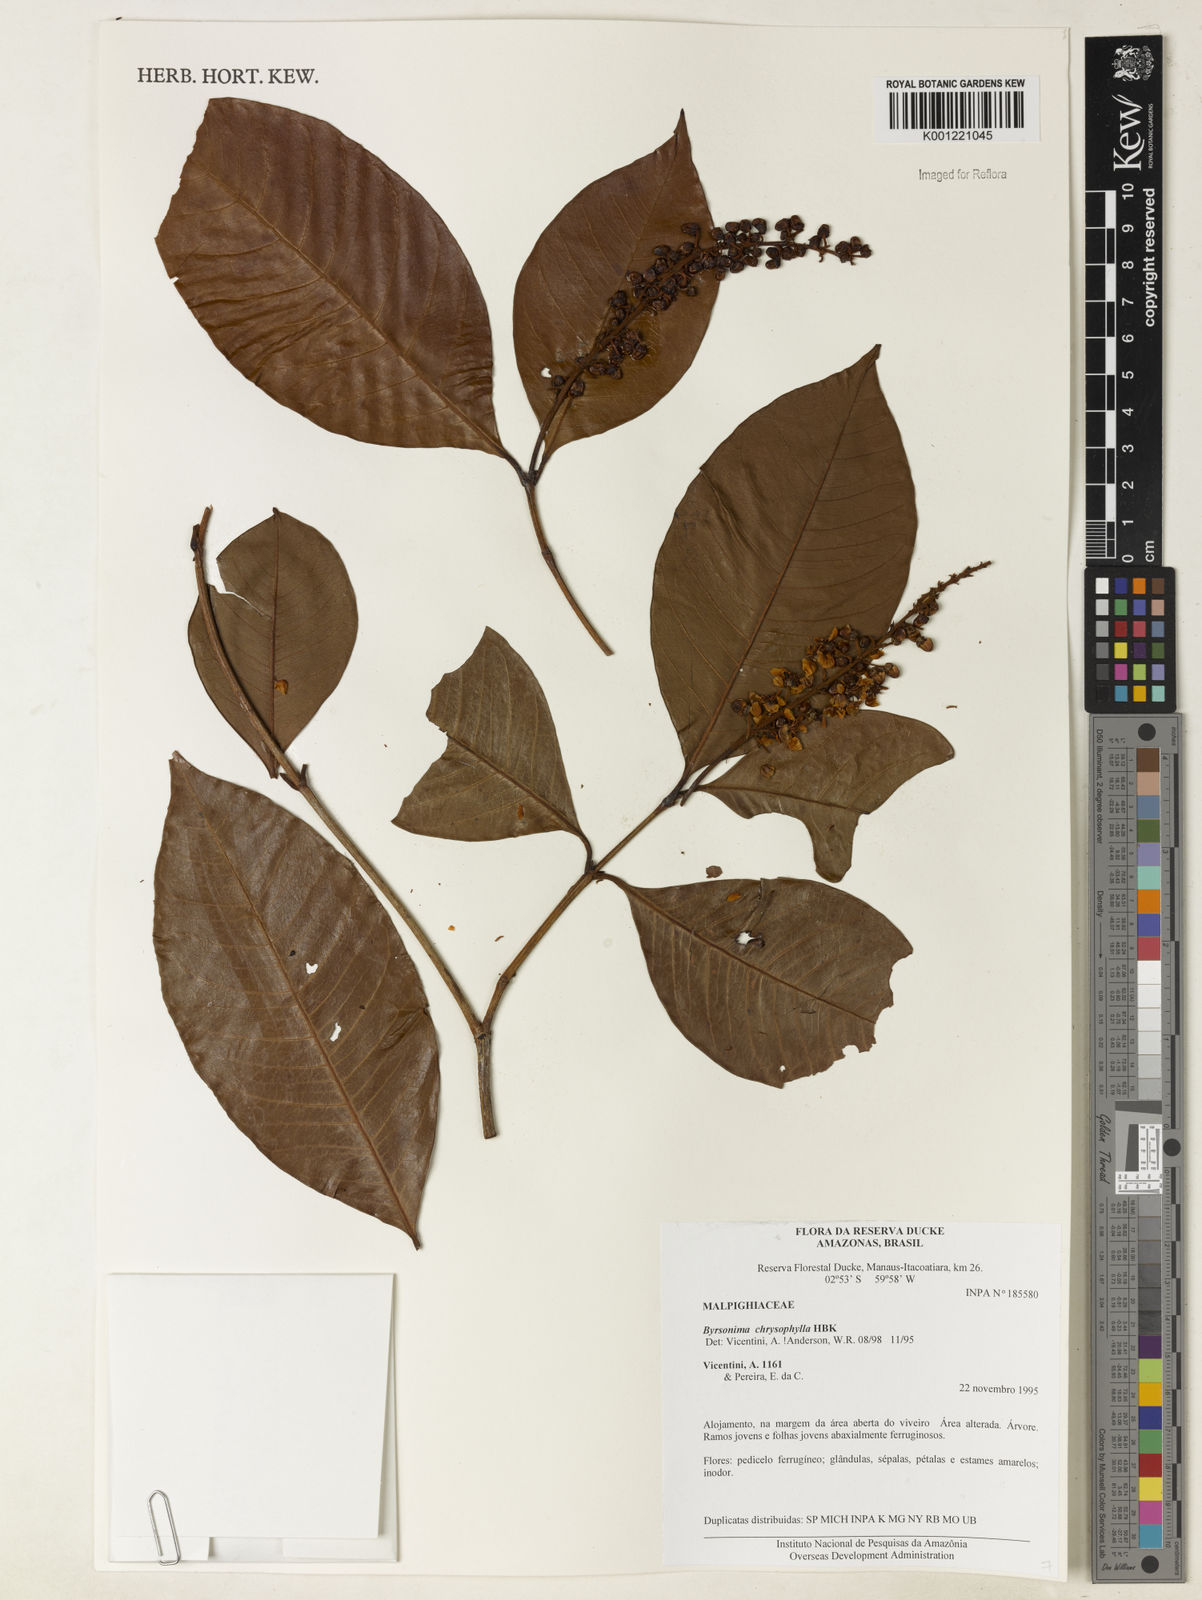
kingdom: Plantae
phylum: Tracheophyta
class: Magnoliopsida
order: Malpighiales
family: Malpighiaceae
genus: Byrsonima
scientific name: Byrsonima chrysophylla
